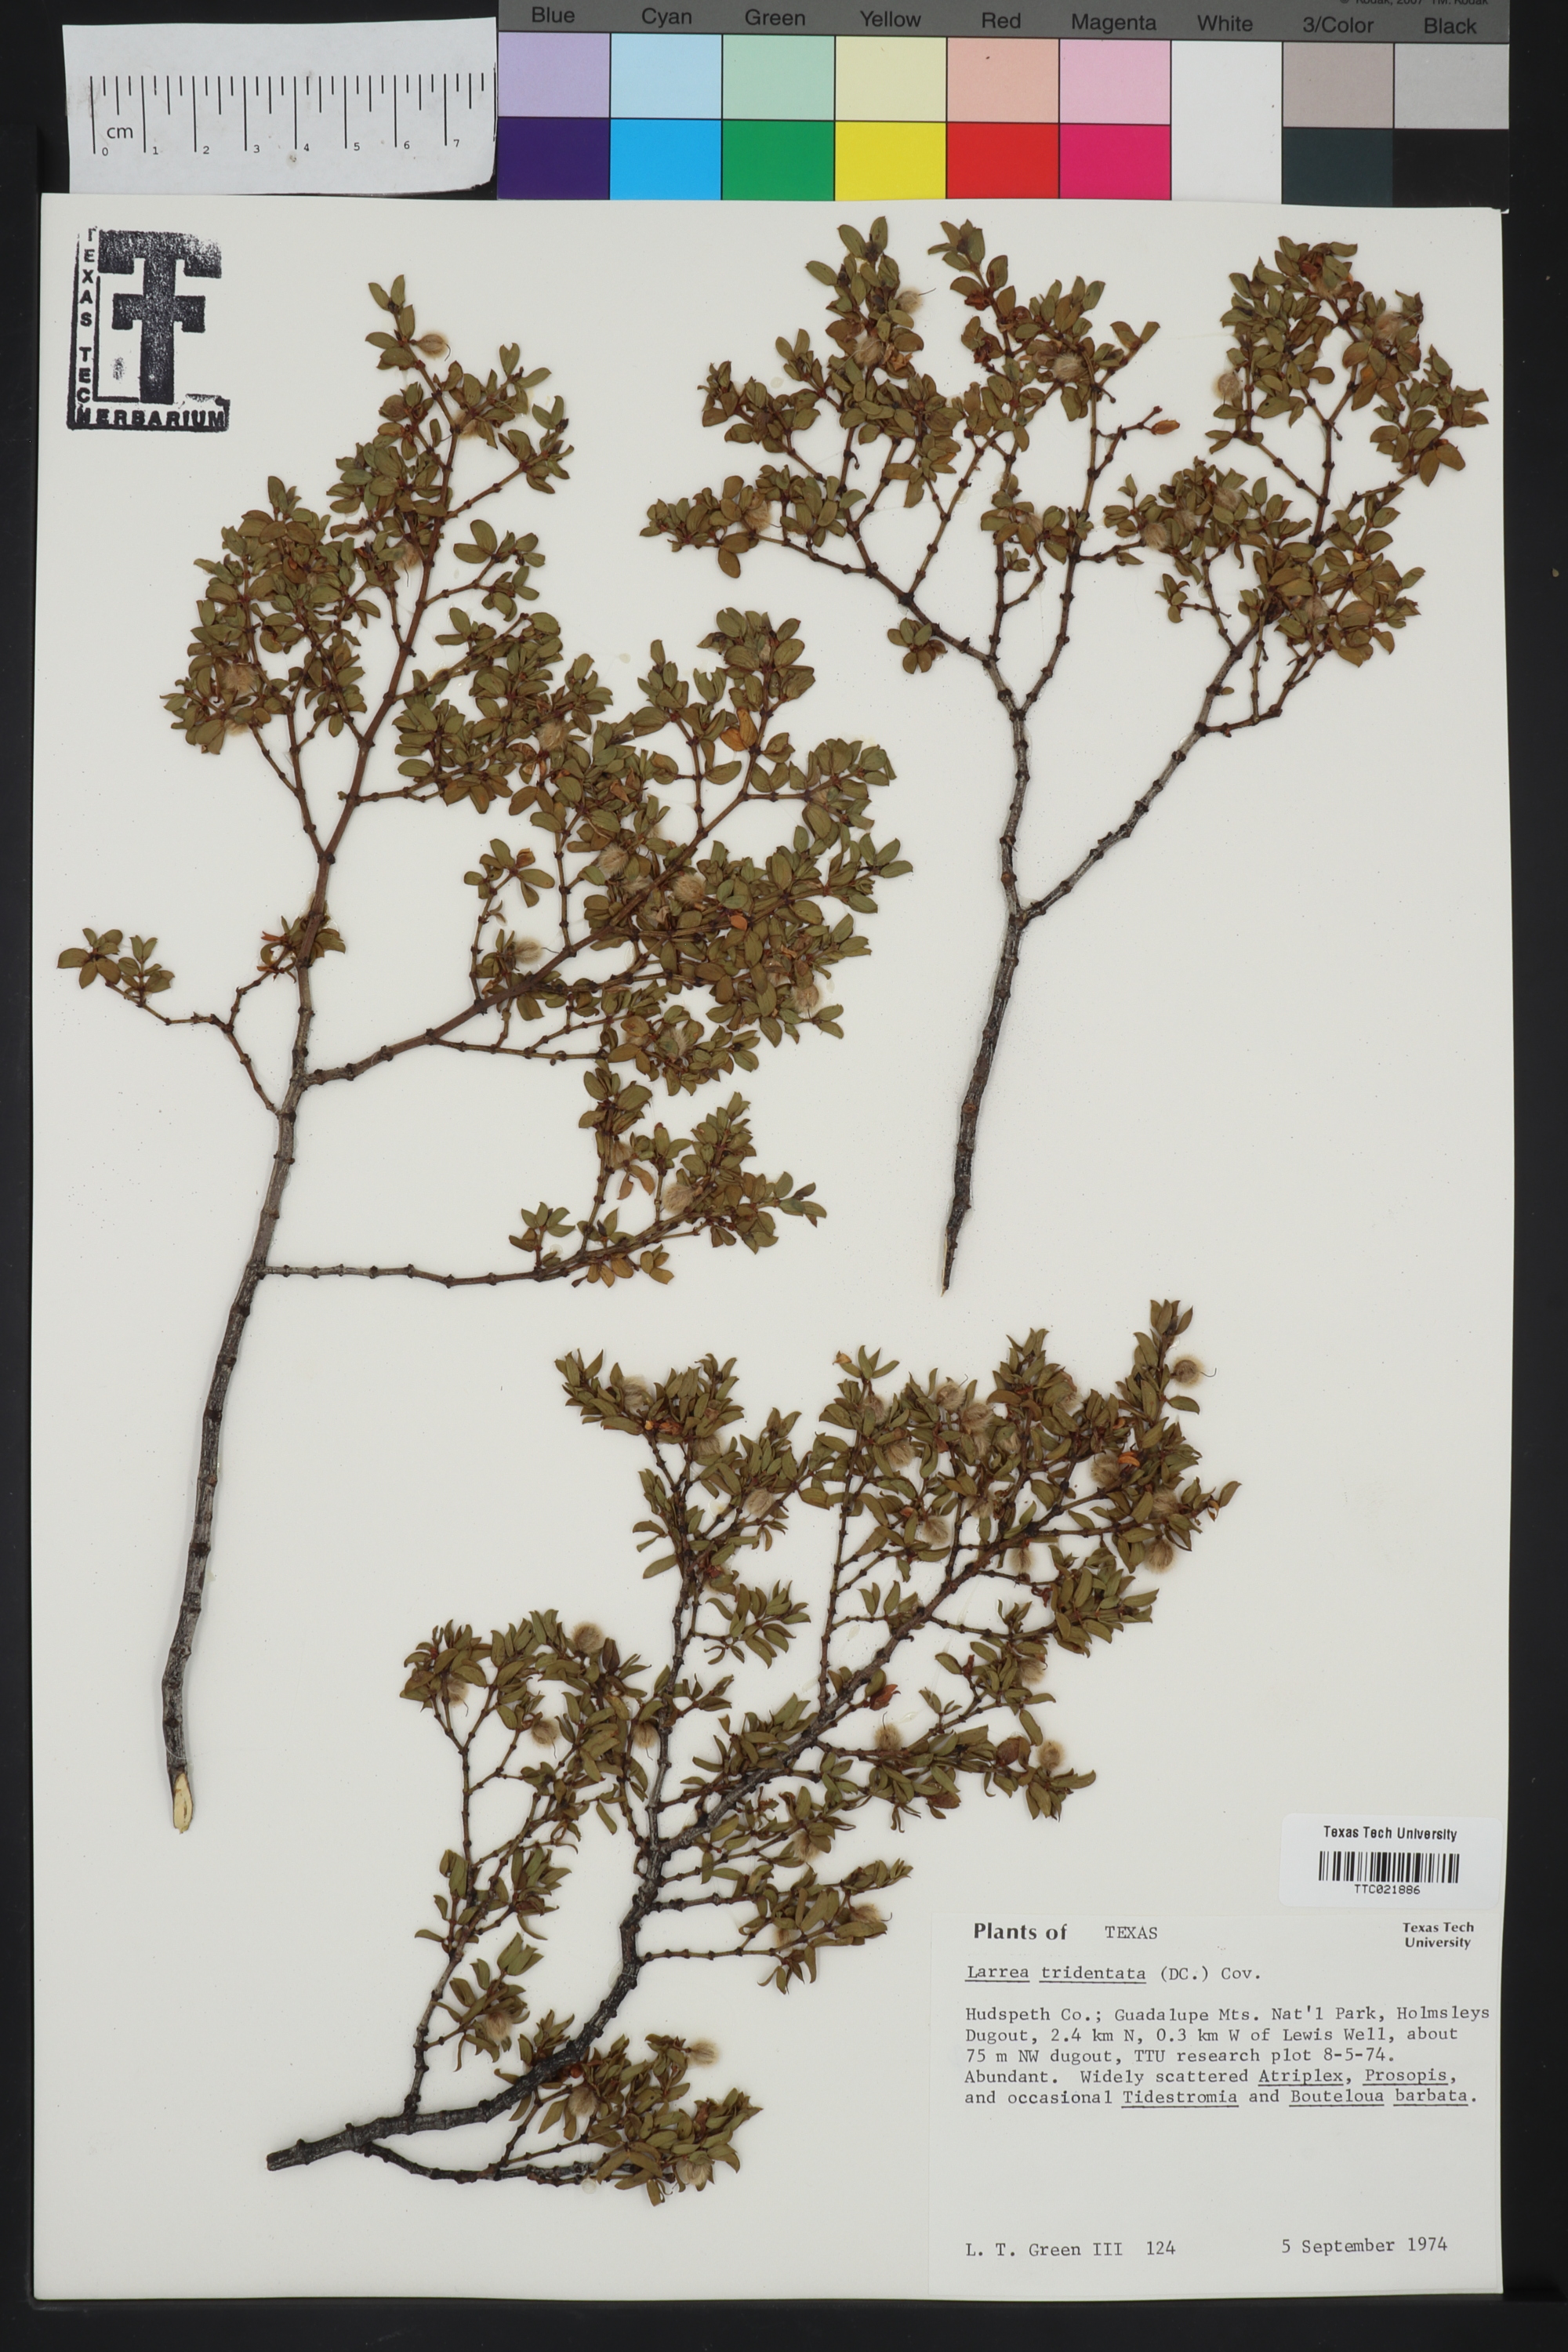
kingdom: Plantae
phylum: Tracheophyta
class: Magnoliopsida
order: Zygophyllales
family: Zygophyllaceae
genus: Larrea
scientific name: Larrea tridentata
